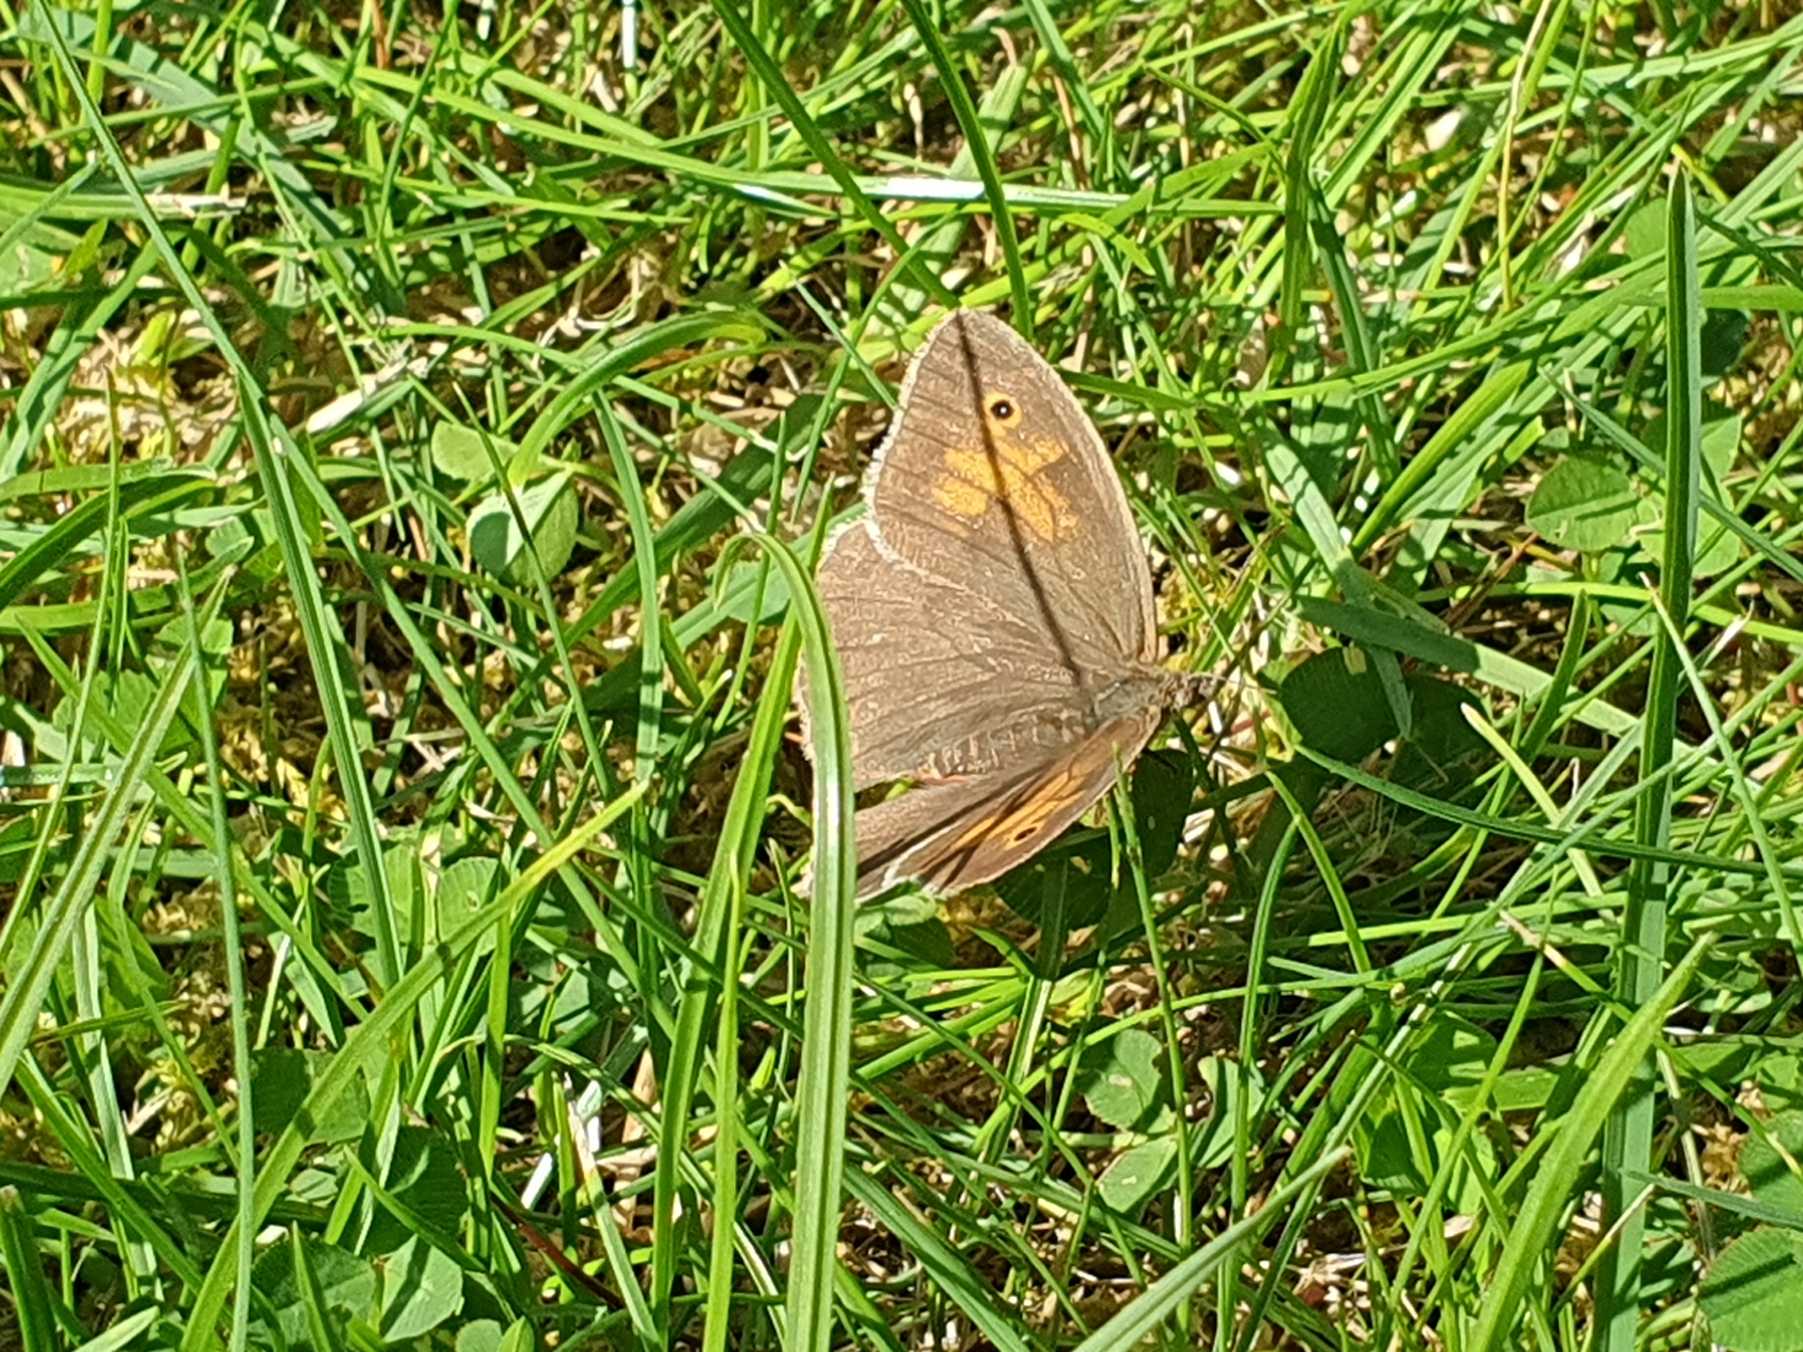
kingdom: Animalia
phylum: Arthropoda
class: Insecta
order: Lepidoptera
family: Nymphalidae
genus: Maniola
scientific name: Maniola jurtina
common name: Græsrandøje
